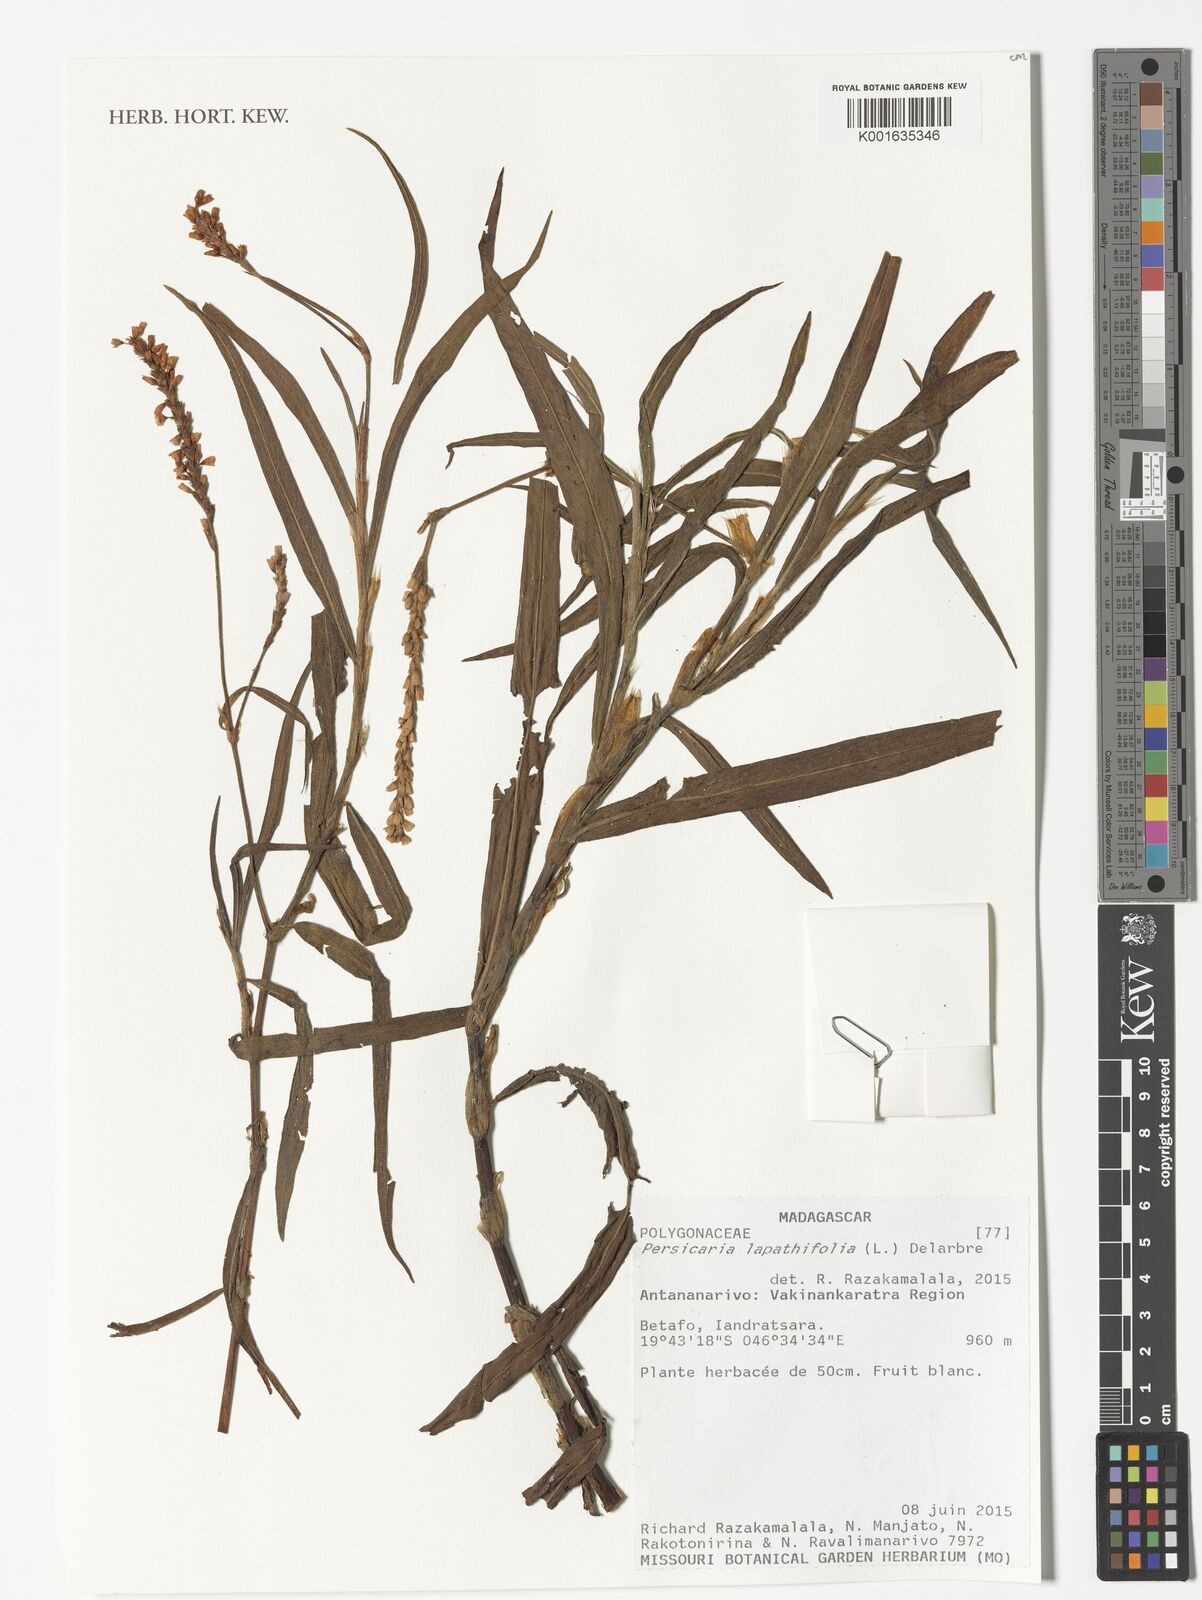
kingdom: Plantae
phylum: Tracheophyta
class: Magnoliopsida
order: Caryophyllales
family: Polygonaceae
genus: Persicaria
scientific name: Persicaria lapathifolia
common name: Curlytop knotweed
